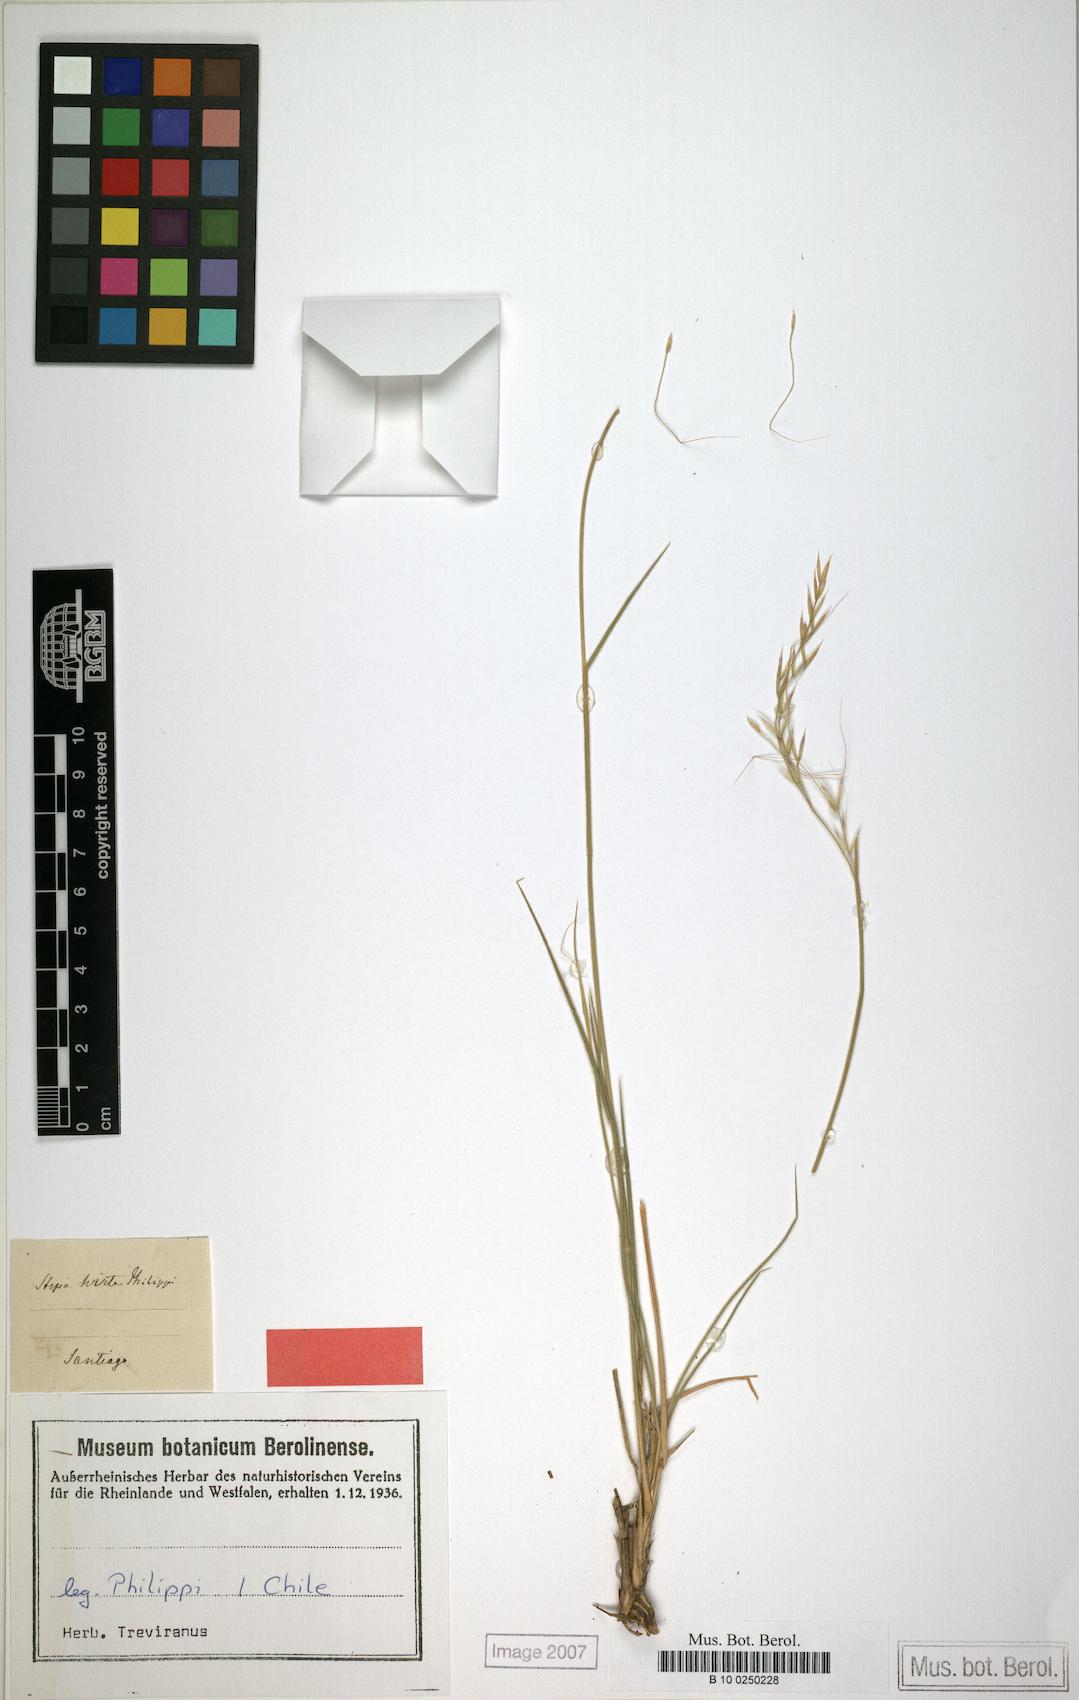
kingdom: Plantae
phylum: Tracheophyta
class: Liliopsida
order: Poales
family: Poaceae
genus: Nassella
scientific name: Nassella lachnophylla
